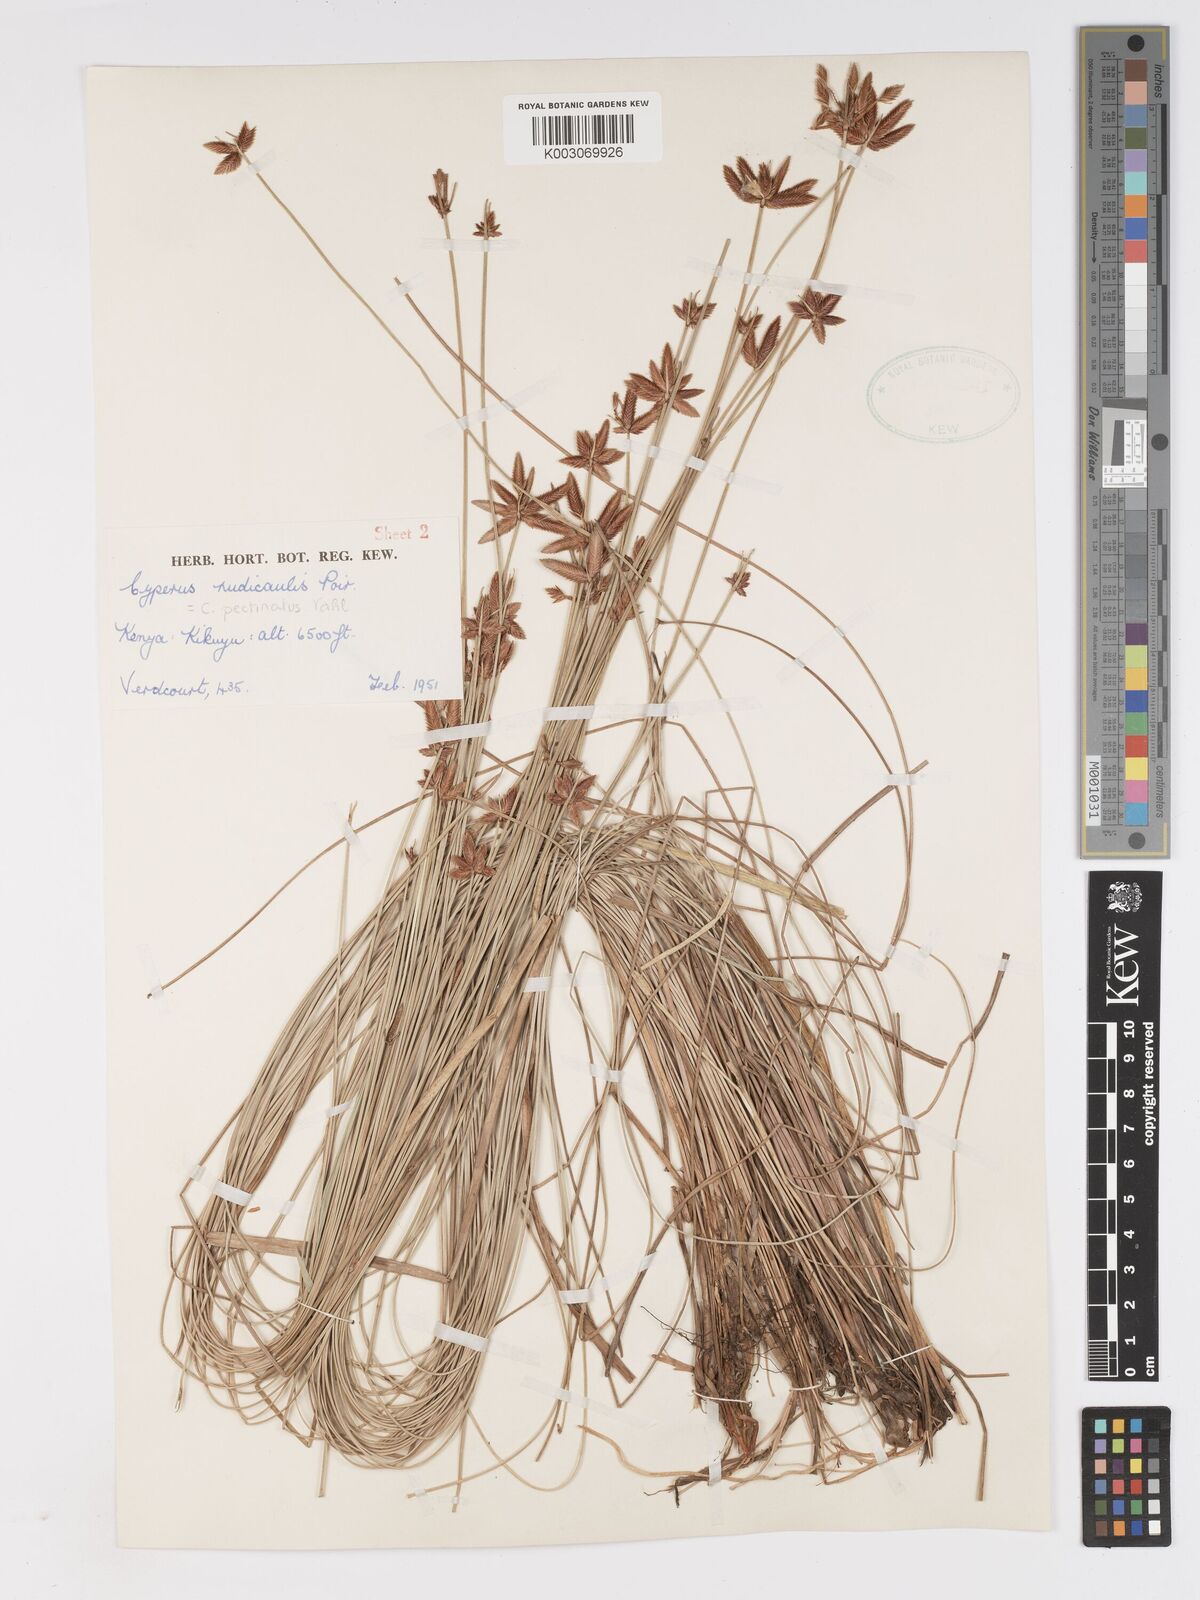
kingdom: Plantae
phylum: Tracheophyta
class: Liliopsida
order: Poales
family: Cyperaceae
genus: Cyperus
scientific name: Cyperus pectinatus
